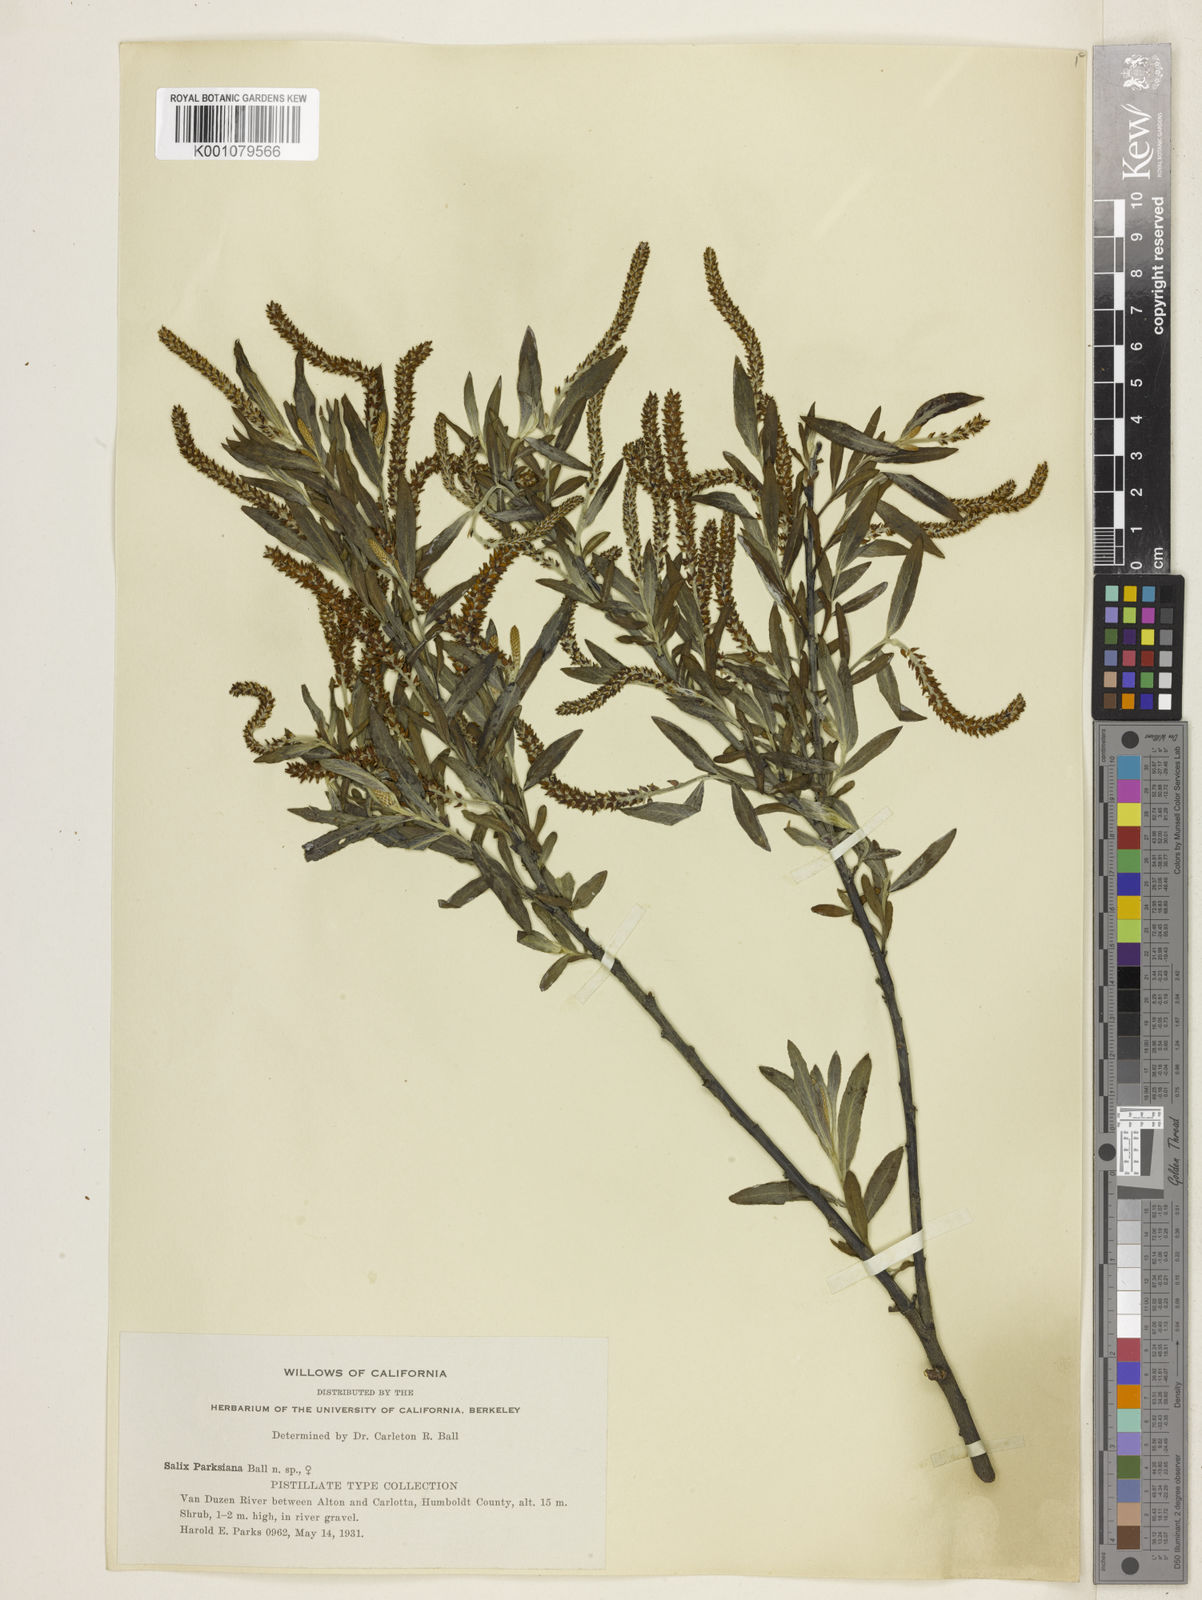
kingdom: Plantae
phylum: Tracheophyta
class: Magnoliopsida
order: Malpighiales
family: Salicaceae
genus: Salix
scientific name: Salix melanopsis
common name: Dusky willow
